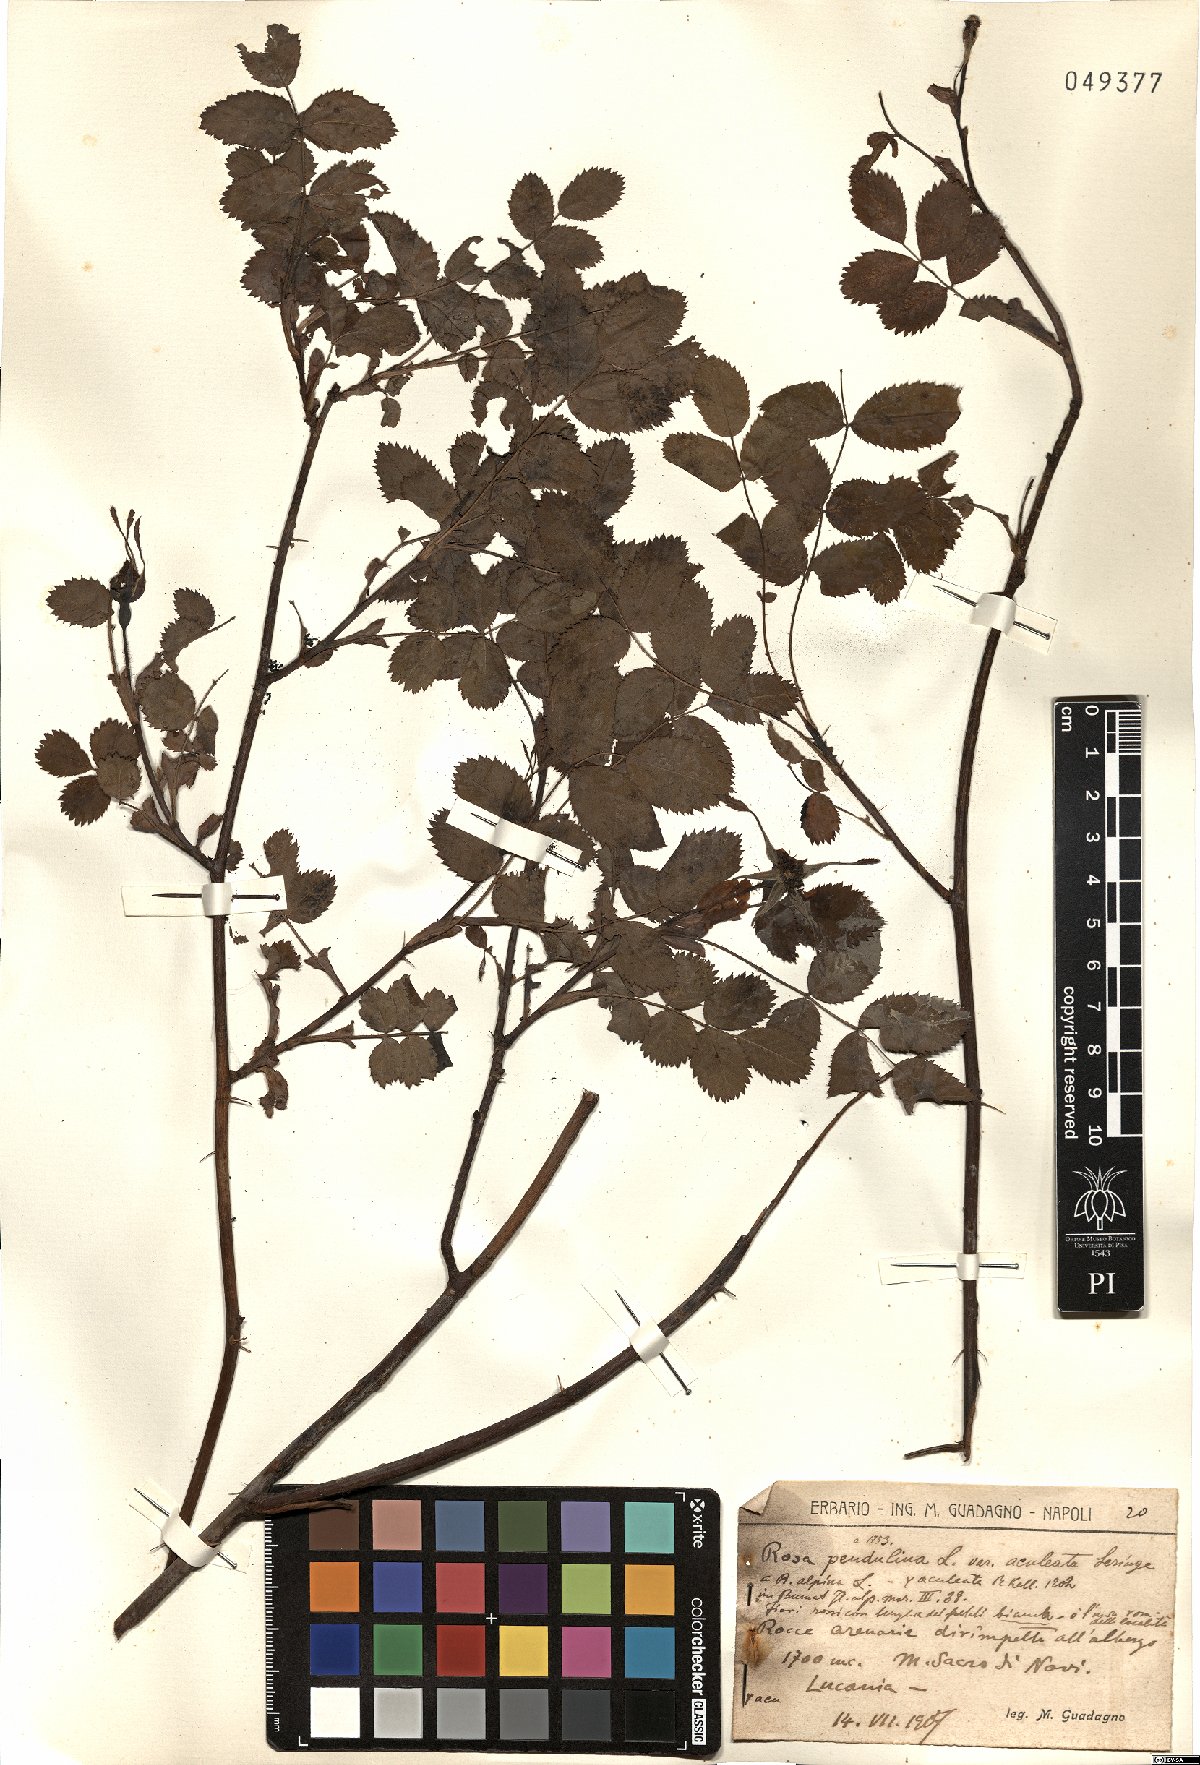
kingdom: Plantae
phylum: Tracheophyta
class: Magnoliopsida
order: Rosales
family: Rosaceae
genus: Rosa
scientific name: Rosa pendulina
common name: Alpine rose
